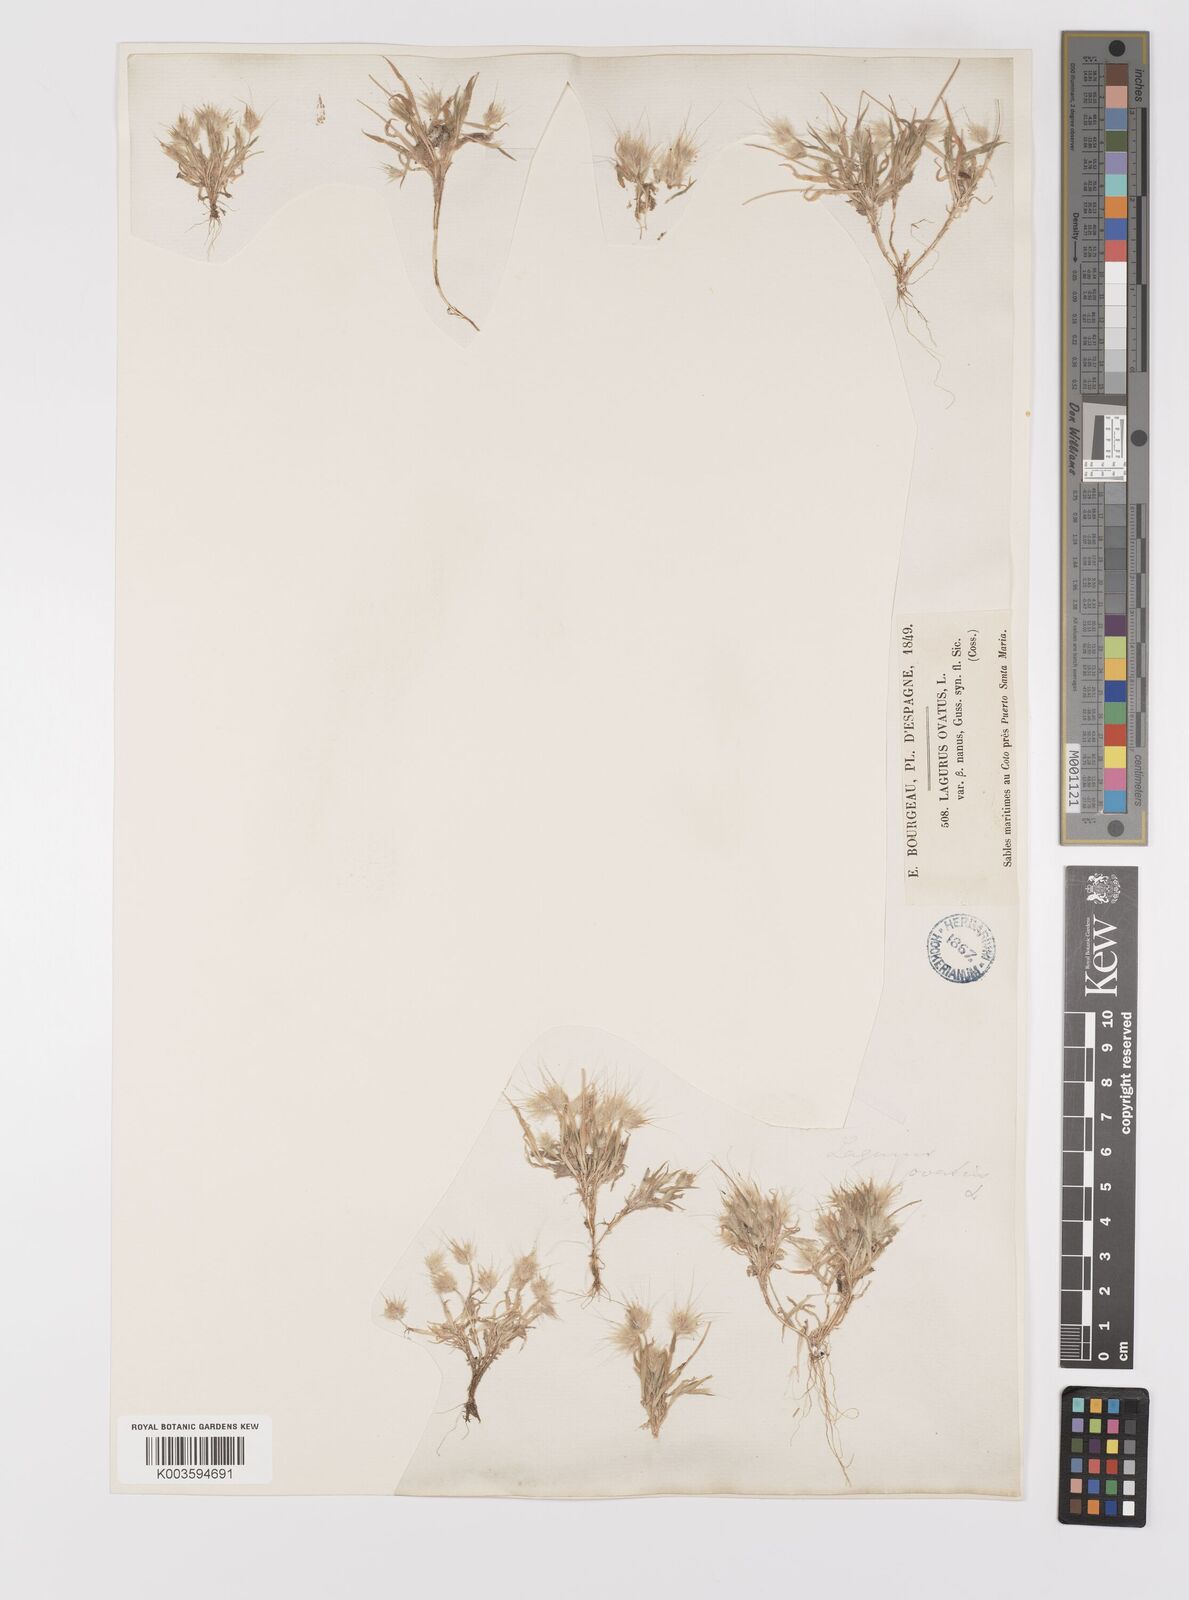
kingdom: Plantae
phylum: Tracheophyta
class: Liliopsida
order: Poales
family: Poaceae
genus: Lagurus
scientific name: Lagurus ovatus
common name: Hare's-tail
